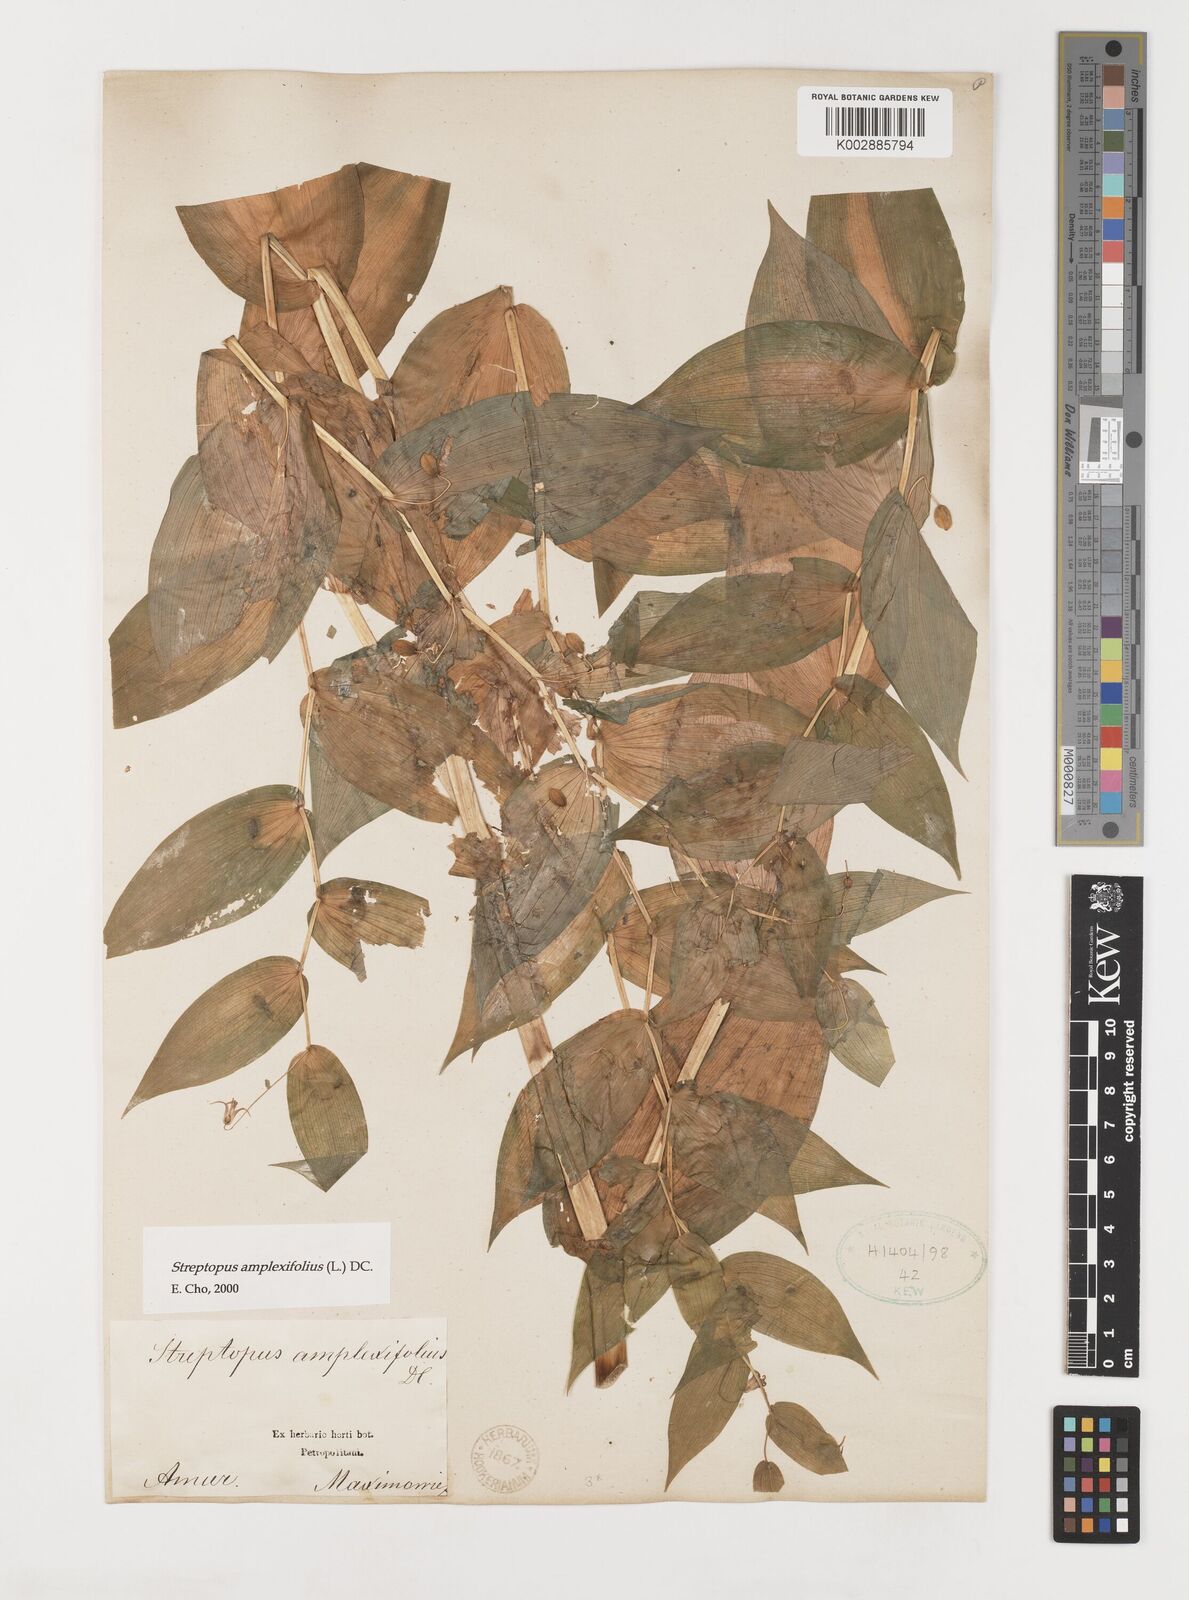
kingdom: Plantae
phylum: Tracheophyta
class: Liliopsida
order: Liliales
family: Liliaceae
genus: Streptopus
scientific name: Streptopus amplexifolius
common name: Clasp twisted stalk
